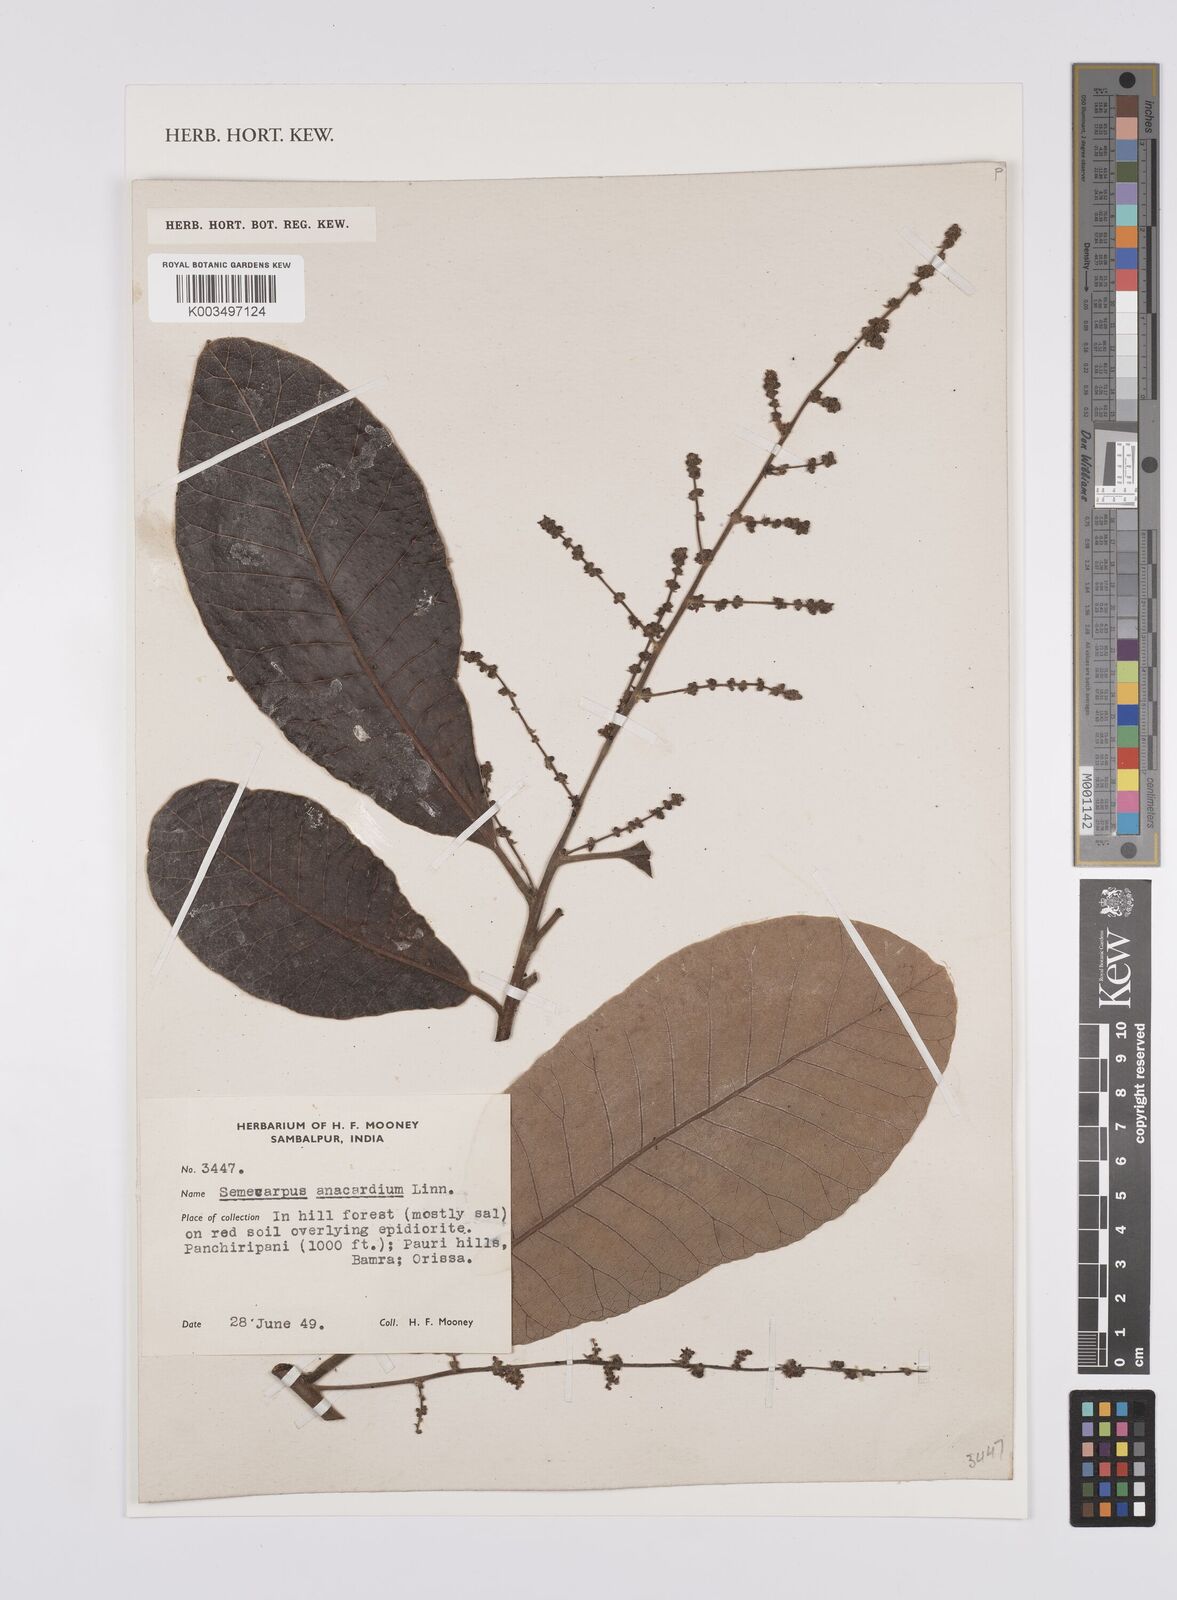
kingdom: Plantae
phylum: Tracheophyta
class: Magnoliopsida
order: Sapindales
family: Anacardiaceae
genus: Semecarpus
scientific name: Semecarpus anacardium
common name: Marking nut-tree
